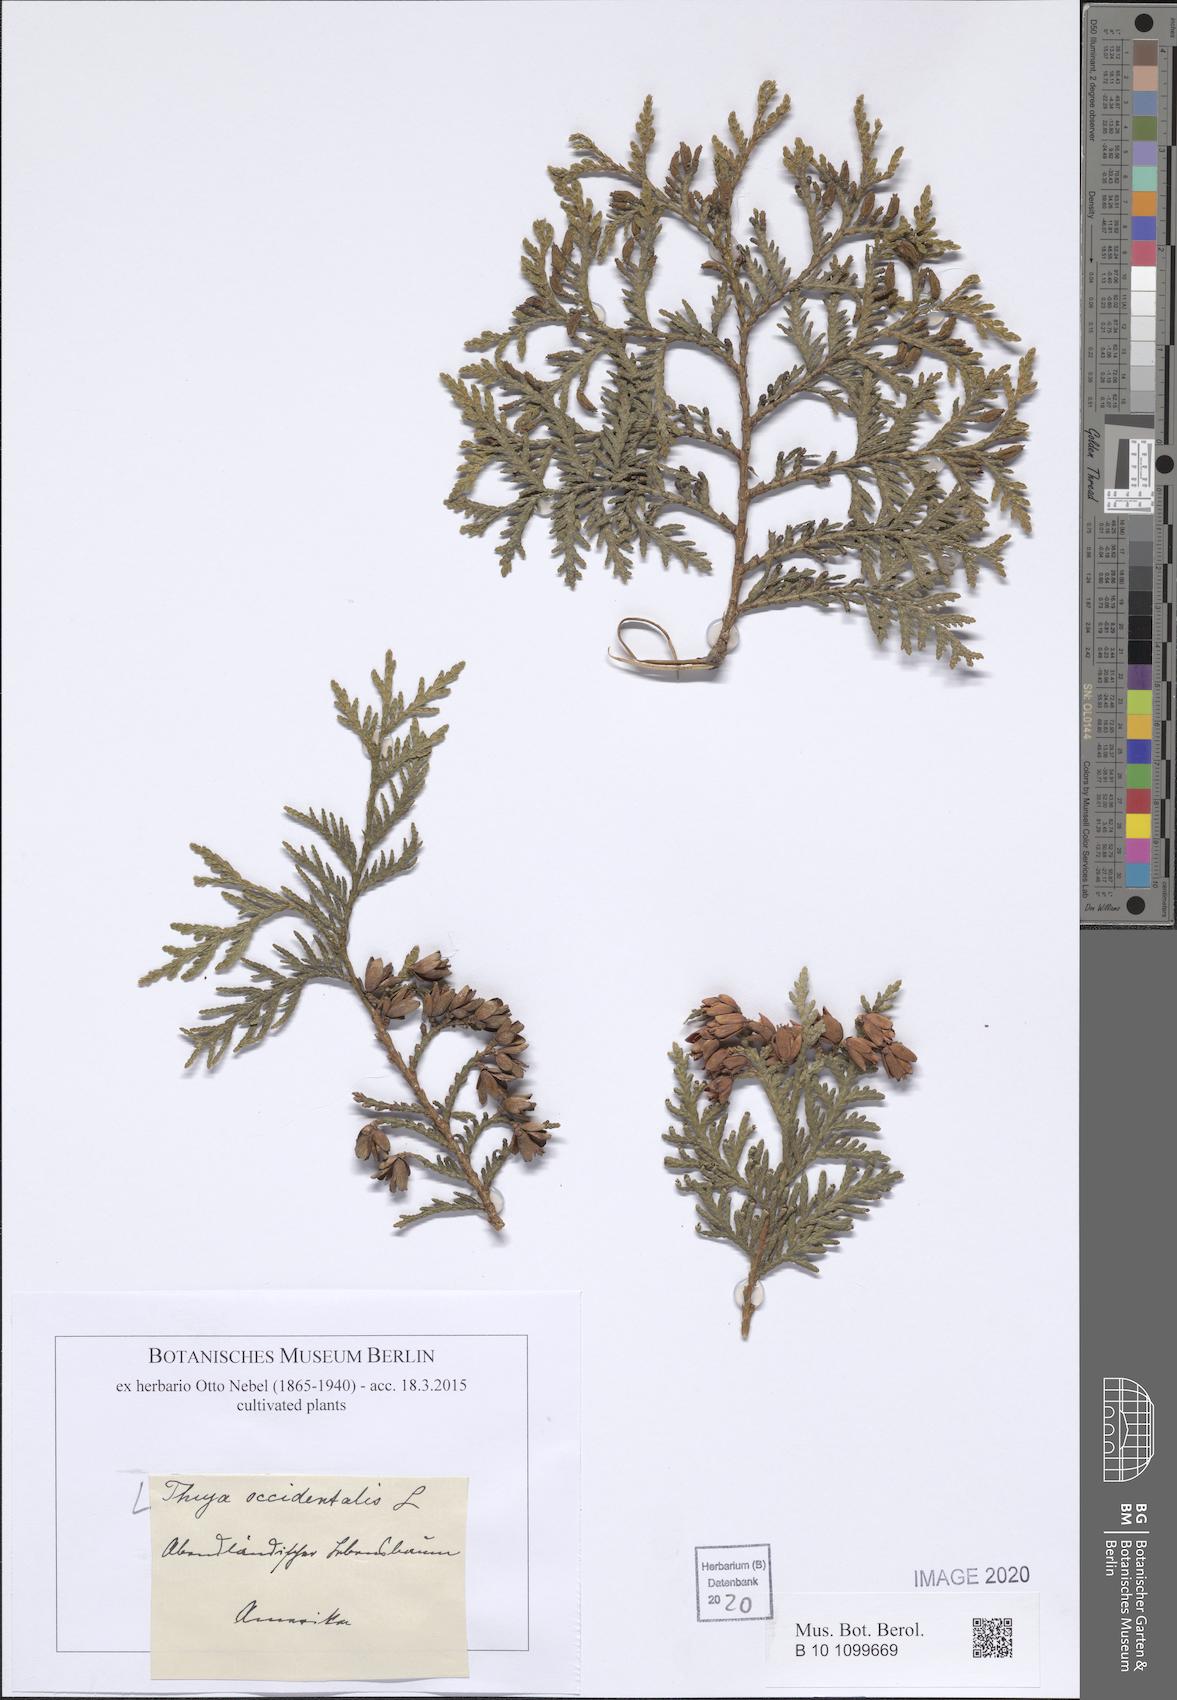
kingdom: Plantae
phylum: Tracheophyta
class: Pinopsida
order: Pinales
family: Cupressaceae
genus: Thuja
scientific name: Thuja occidentalis
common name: Northern white-cedar
